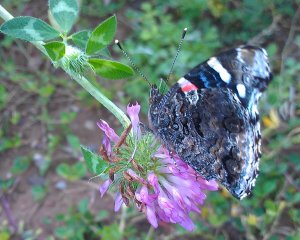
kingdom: Animalia
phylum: Arthropoda
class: Insecta
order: Lepidoptera
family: Nymphalidae
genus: Vanessa
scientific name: Vanessa atalanta
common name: Red Admiral
